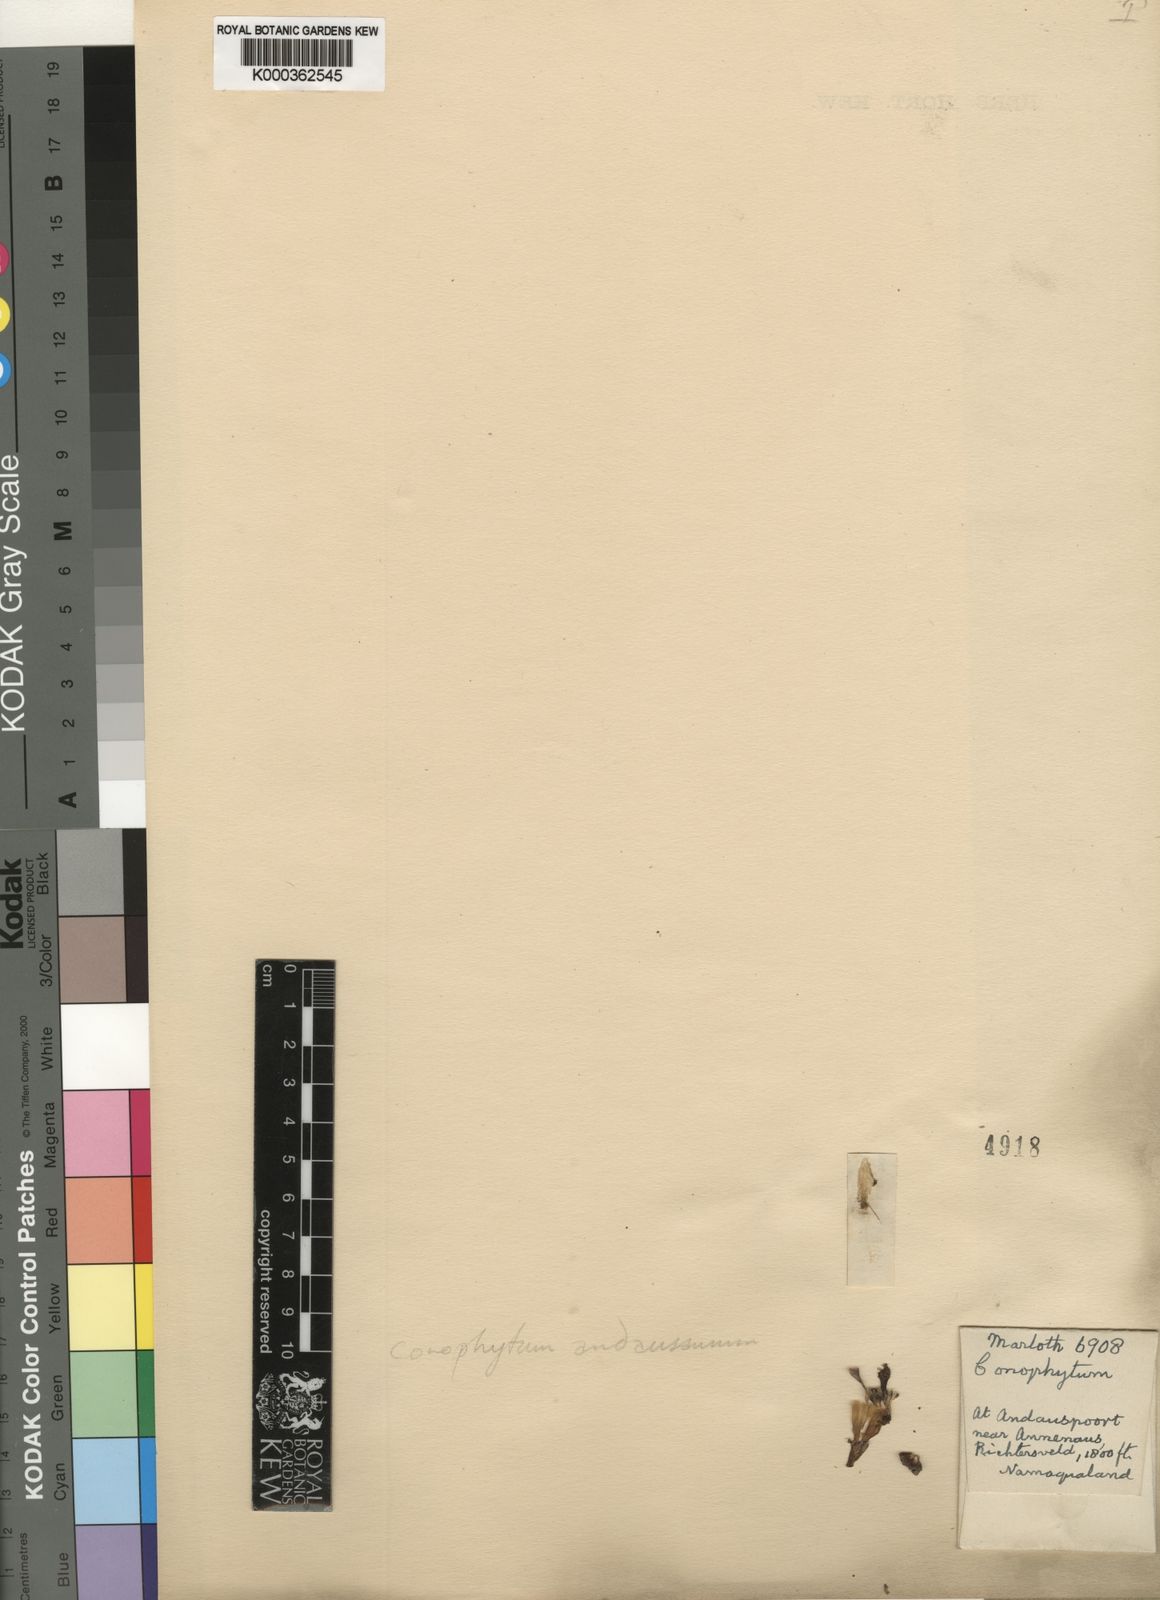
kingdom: Plantae
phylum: Tracheophyta
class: Magnoliopsida
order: Caryophyllales
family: Aizoaceae
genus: Conophytum
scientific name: Conophytum bilobum
